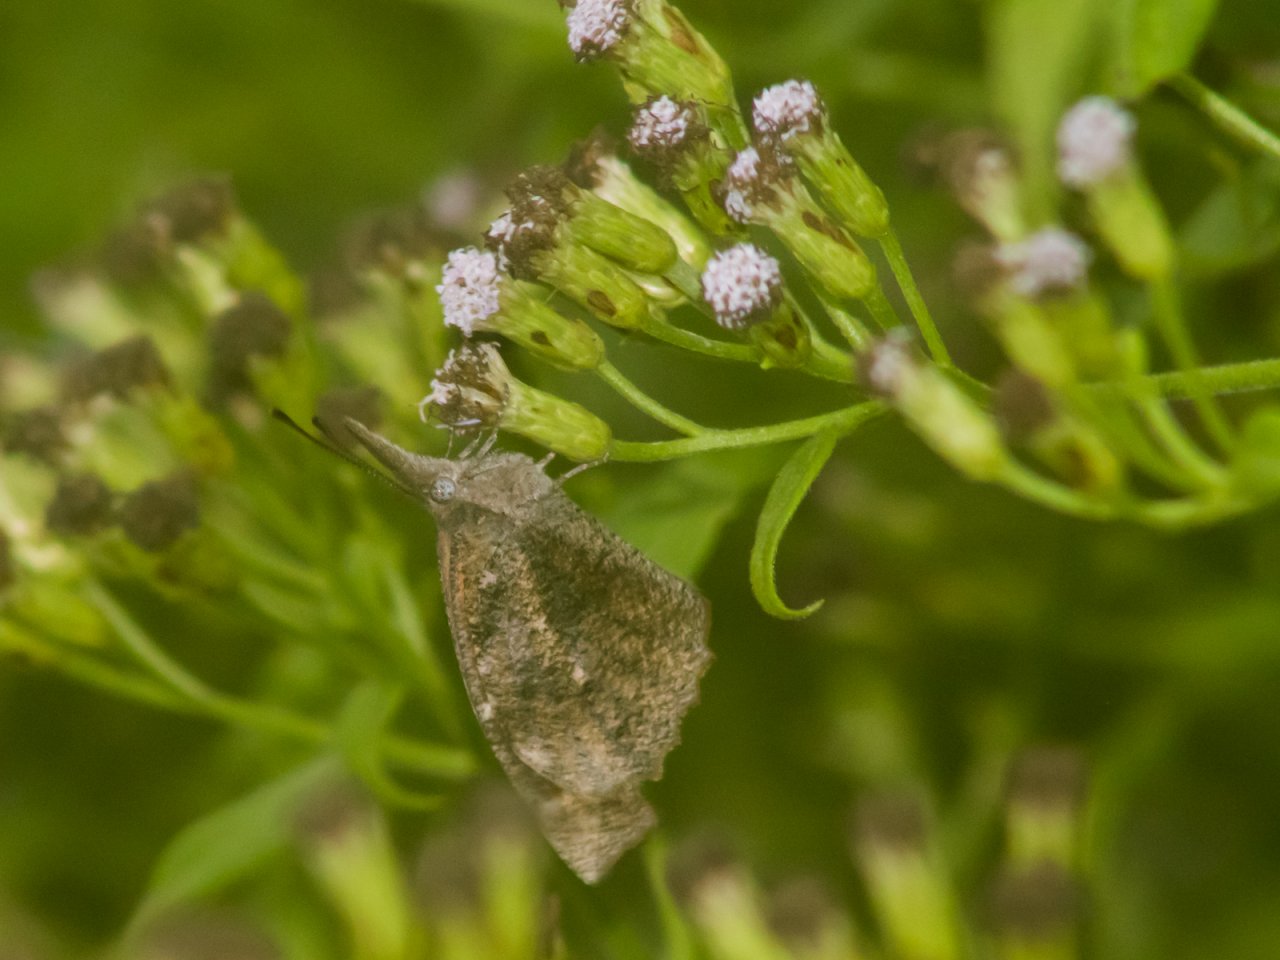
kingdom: Animalia
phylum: Arthropoda
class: Insecta
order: Lepidoptera
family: Nymphalidae
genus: Libytheana
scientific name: Libytheana carinenta
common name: American Snout
